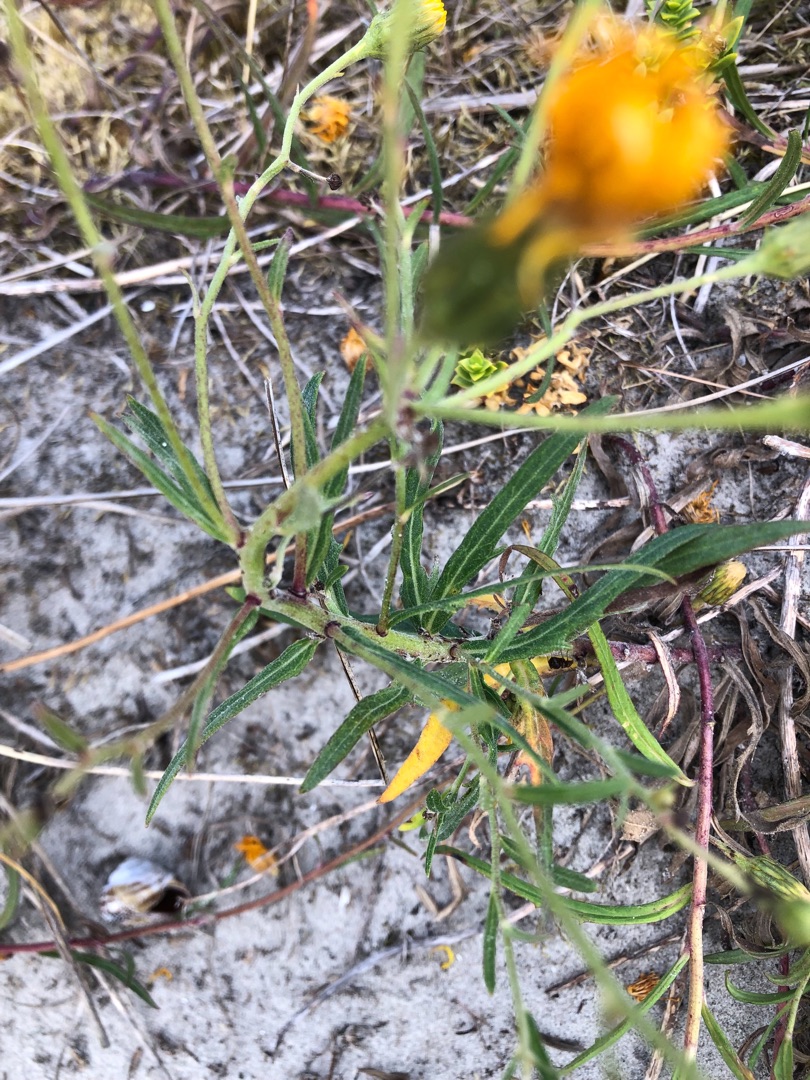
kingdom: Plantae
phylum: Tracheophyta
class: Magnoliopsida
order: Asterales
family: Asteraceae
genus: Hieracium
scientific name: Hieracium umbellatum
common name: Smalbladet høgeurt
